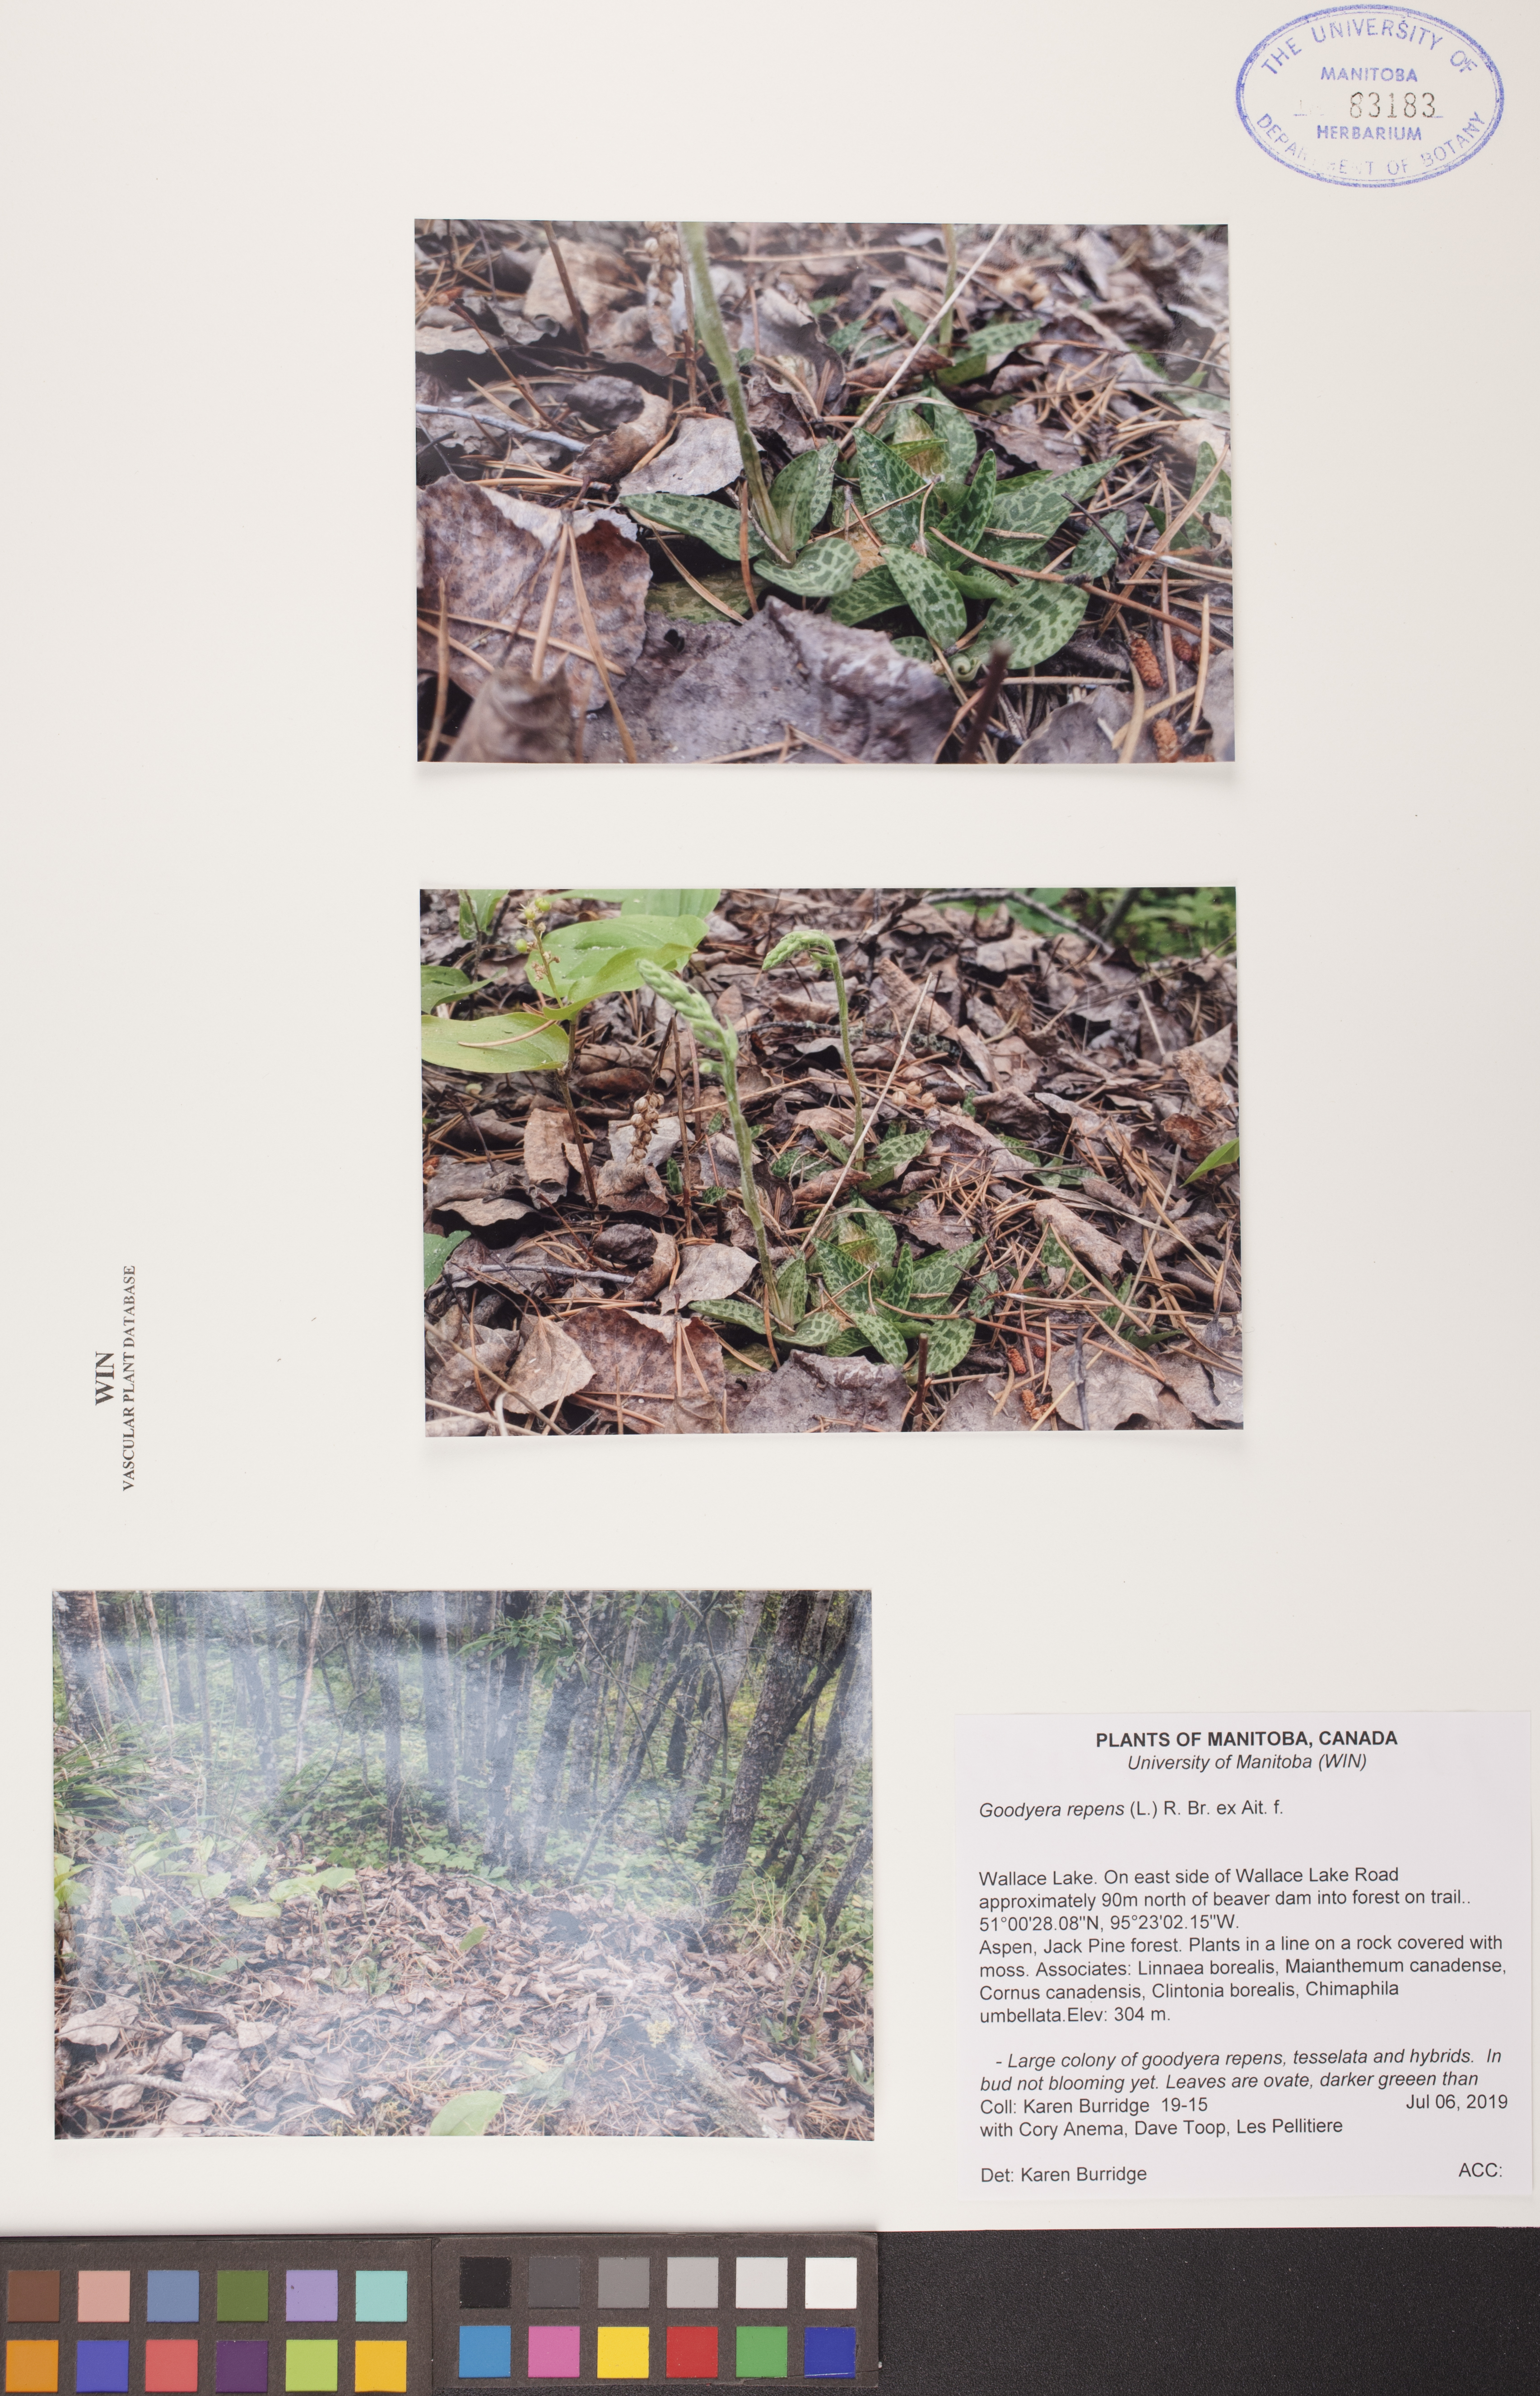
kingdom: Plantae
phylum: Tracheophyta
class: Liliopsida
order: Asparagales
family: Orchidaceae
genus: Goodyera
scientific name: Goodyera repens
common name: Creeping lady's-tresses
